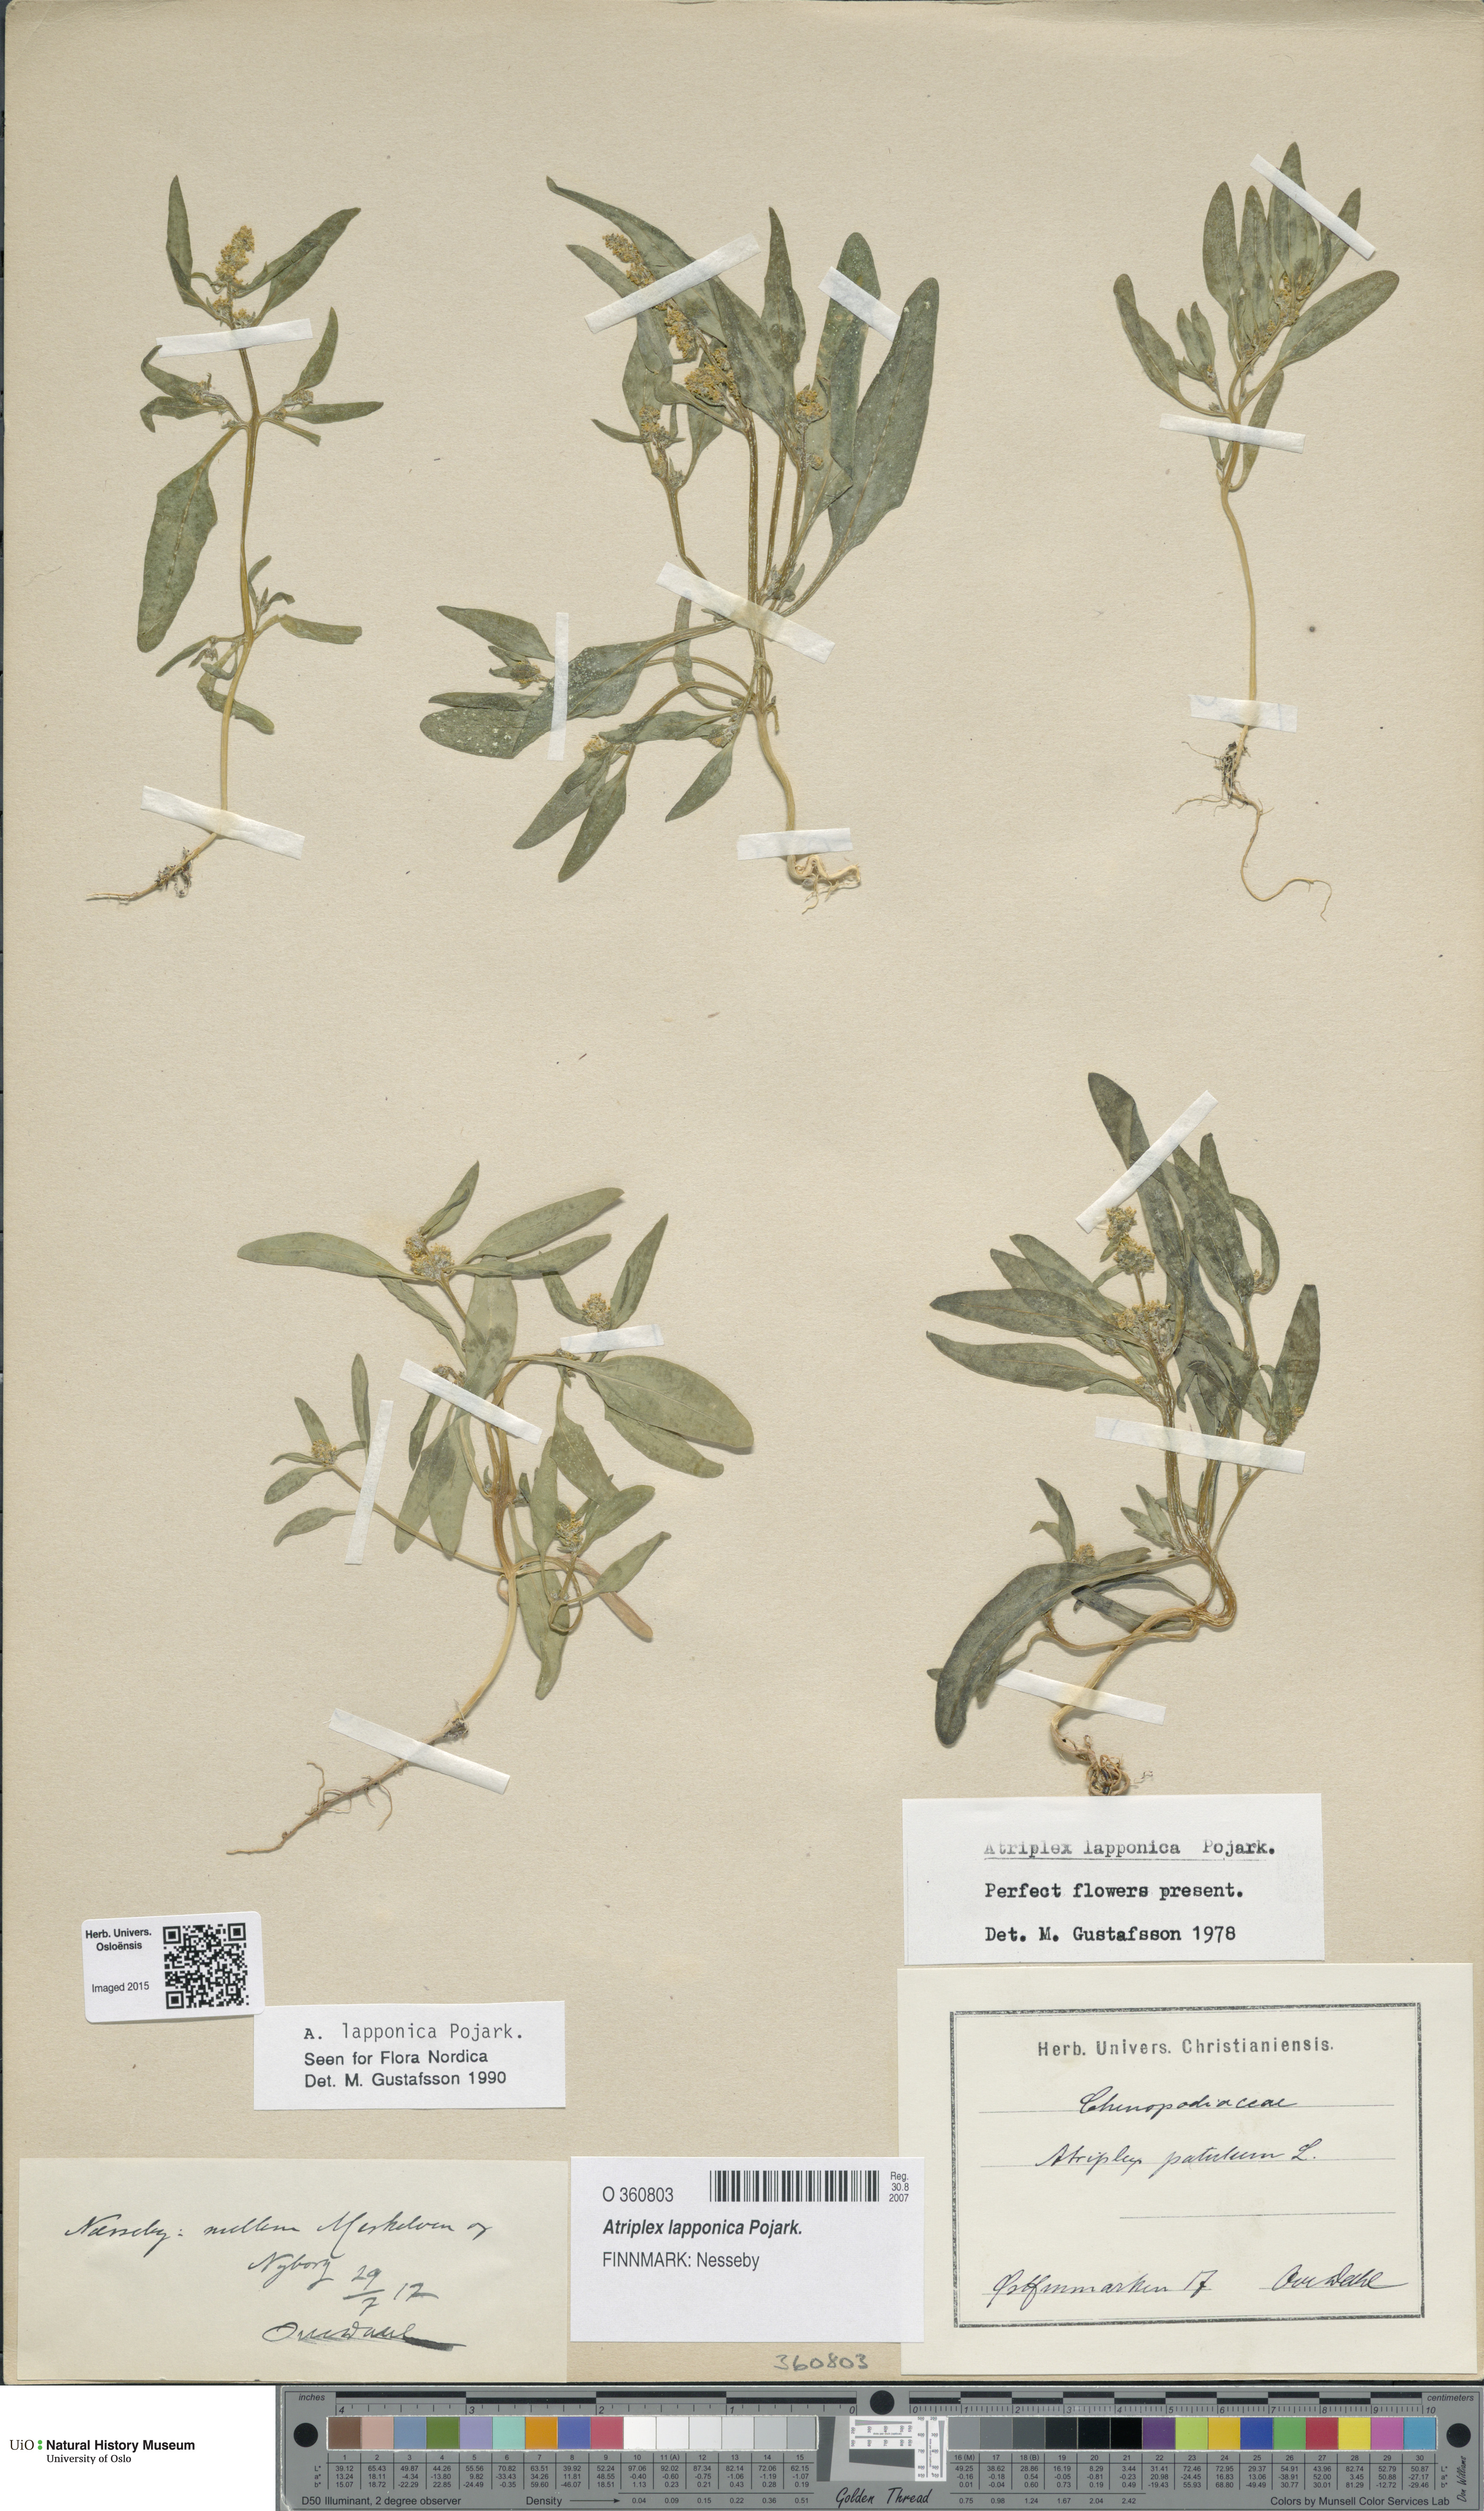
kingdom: Plantae
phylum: Tracheophyta
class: Magnoliopsida
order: Caryophyllales
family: Amaranthaceae
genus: Atriplex
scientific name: Atriplex nudicaulis
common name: Baltic orache
